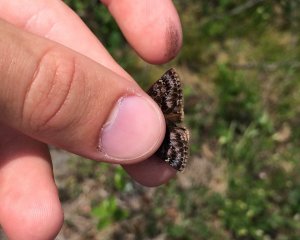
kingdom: Animalia
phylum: Arthropoda
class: Insecta
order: Lepidoptera
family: Hesperiidae
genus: Erynnis
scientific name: Erynnis martialis
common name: Mottled Duskywing
